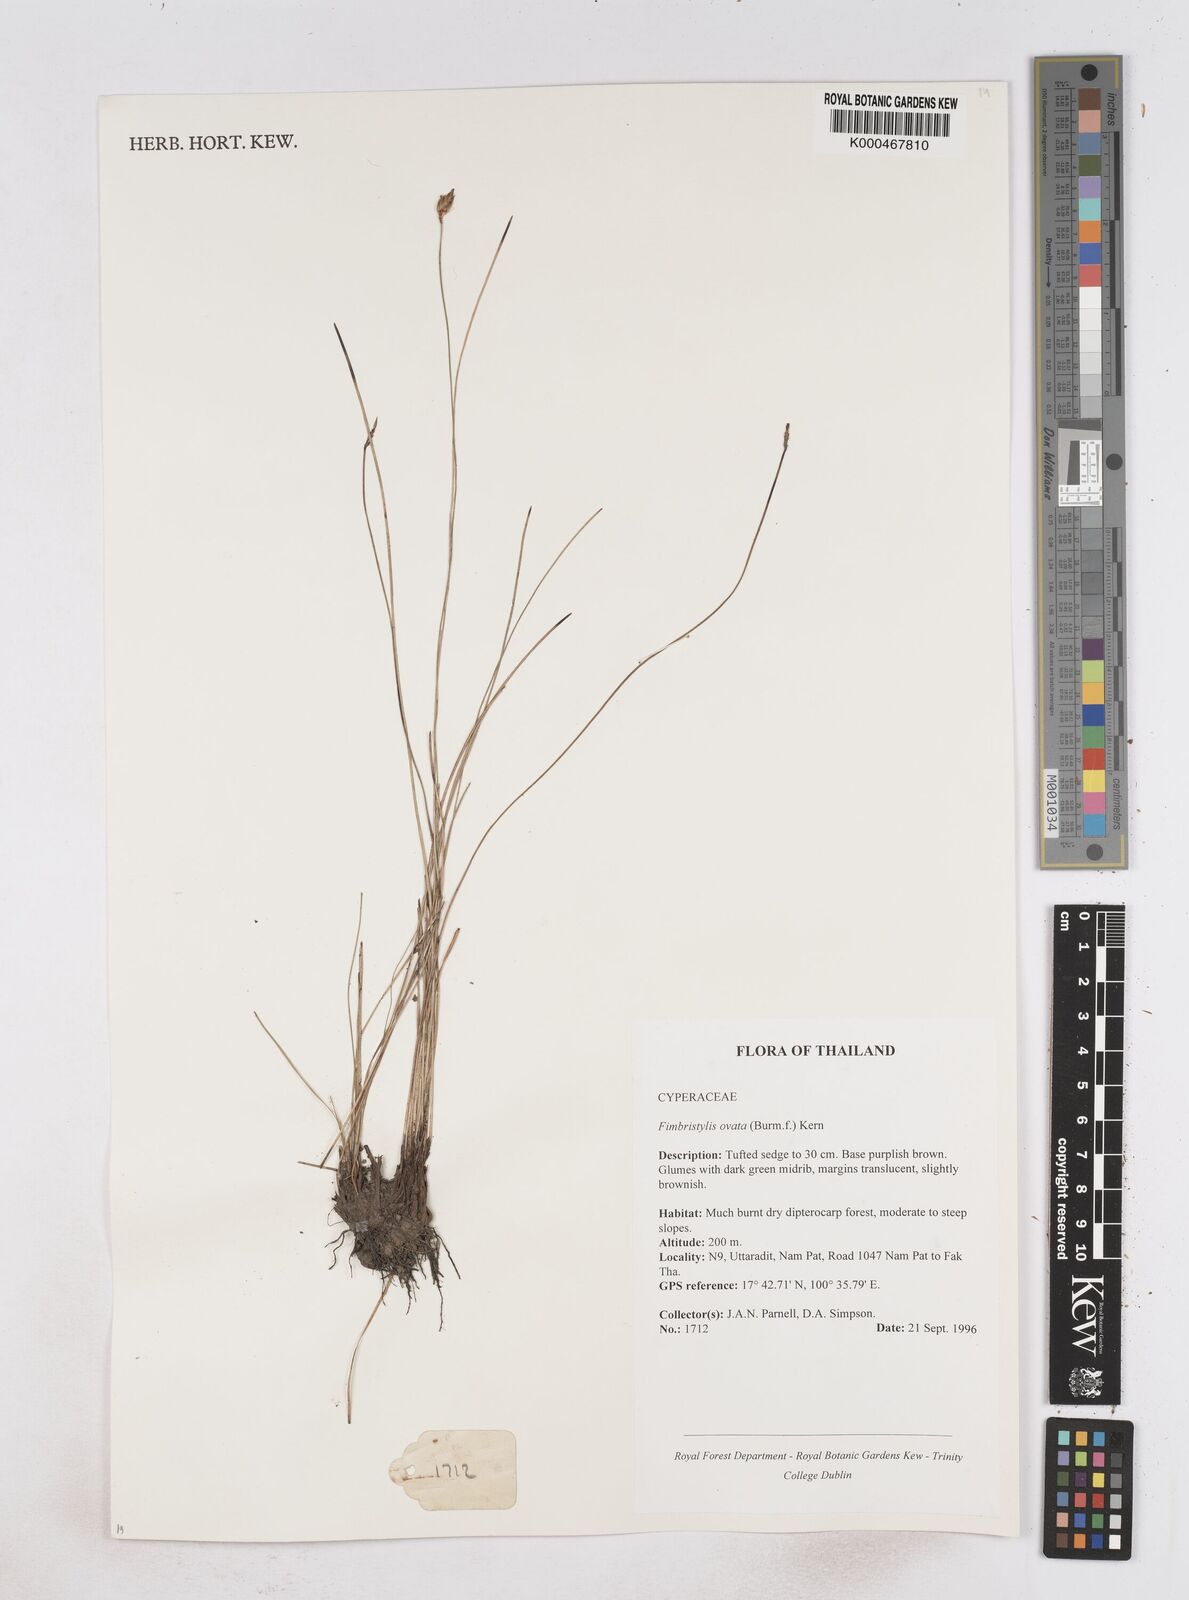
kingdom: Plantae
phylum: Tracheophyta
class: Liliopsida
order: Poales
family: Cyperaceae
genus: Abildgaardia
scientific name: Abildgaardia ovata
